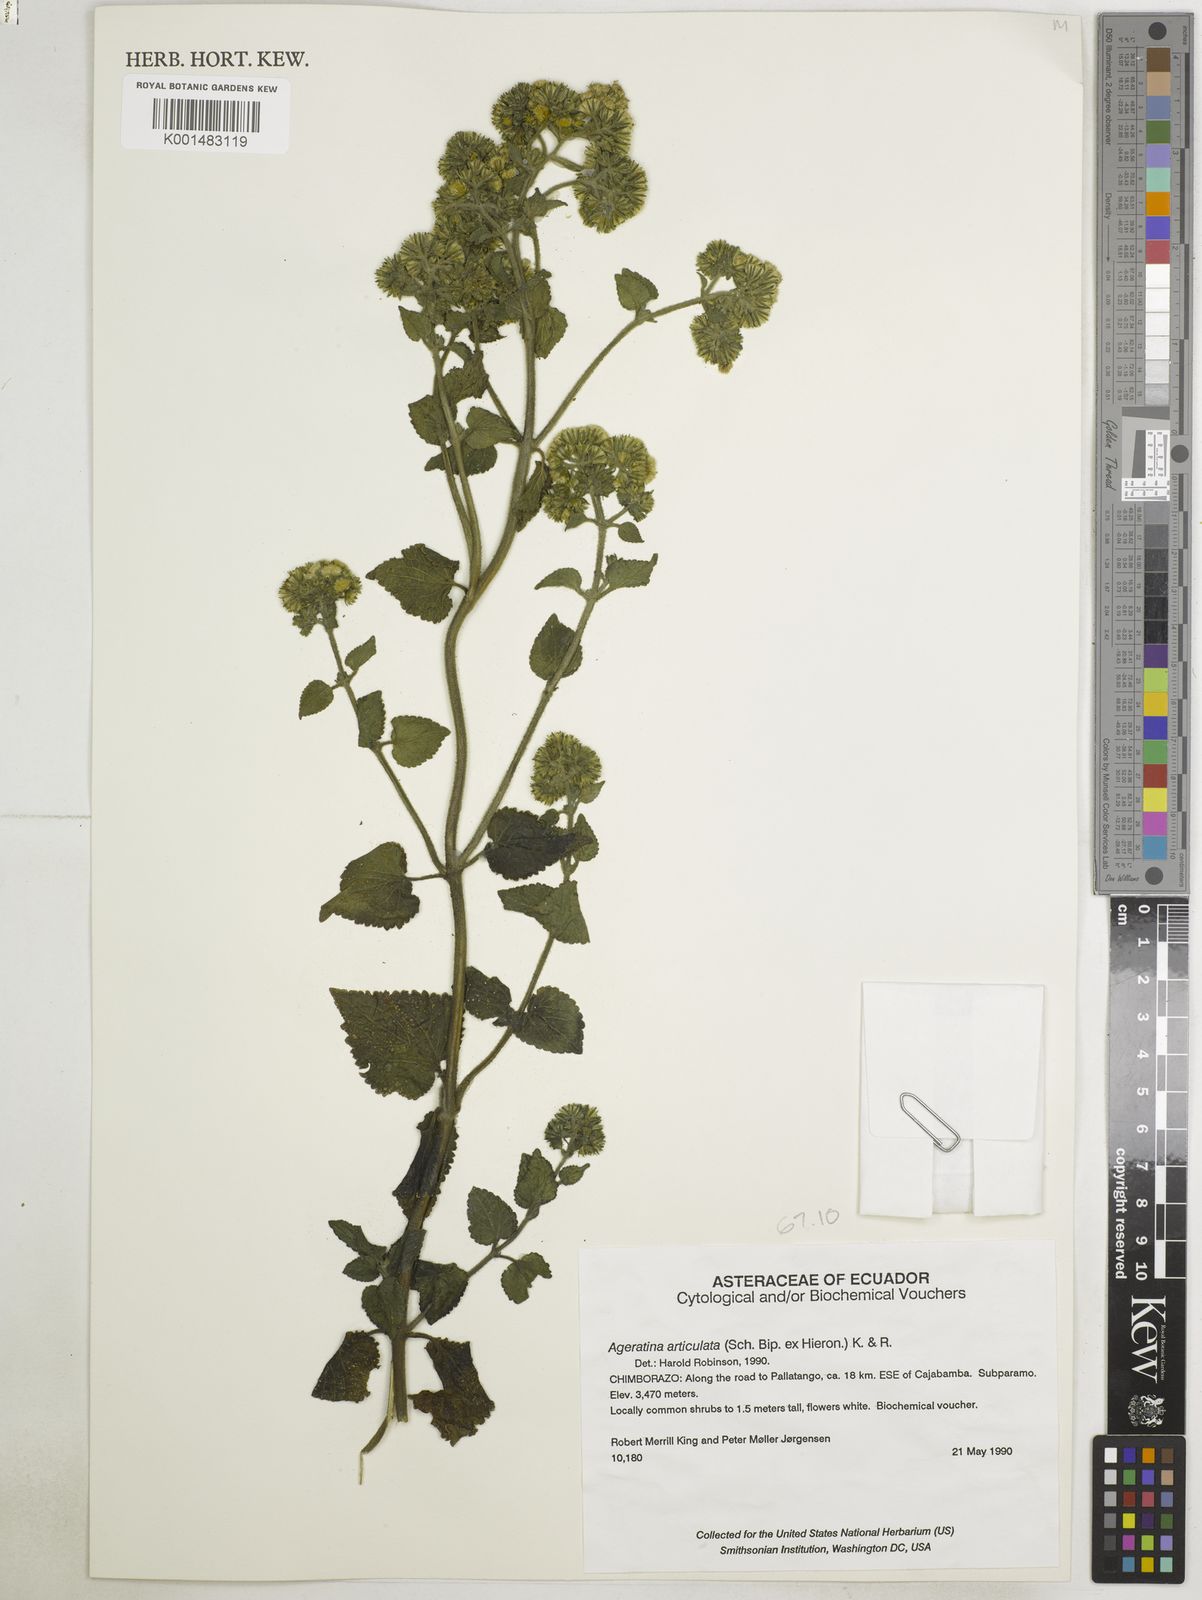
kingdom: Plantae
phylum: Tracheophyta
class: Magnoliopsida
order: Asterales
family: Asteraceae
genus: Ageratina
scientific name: Ageratina pichinchensis
